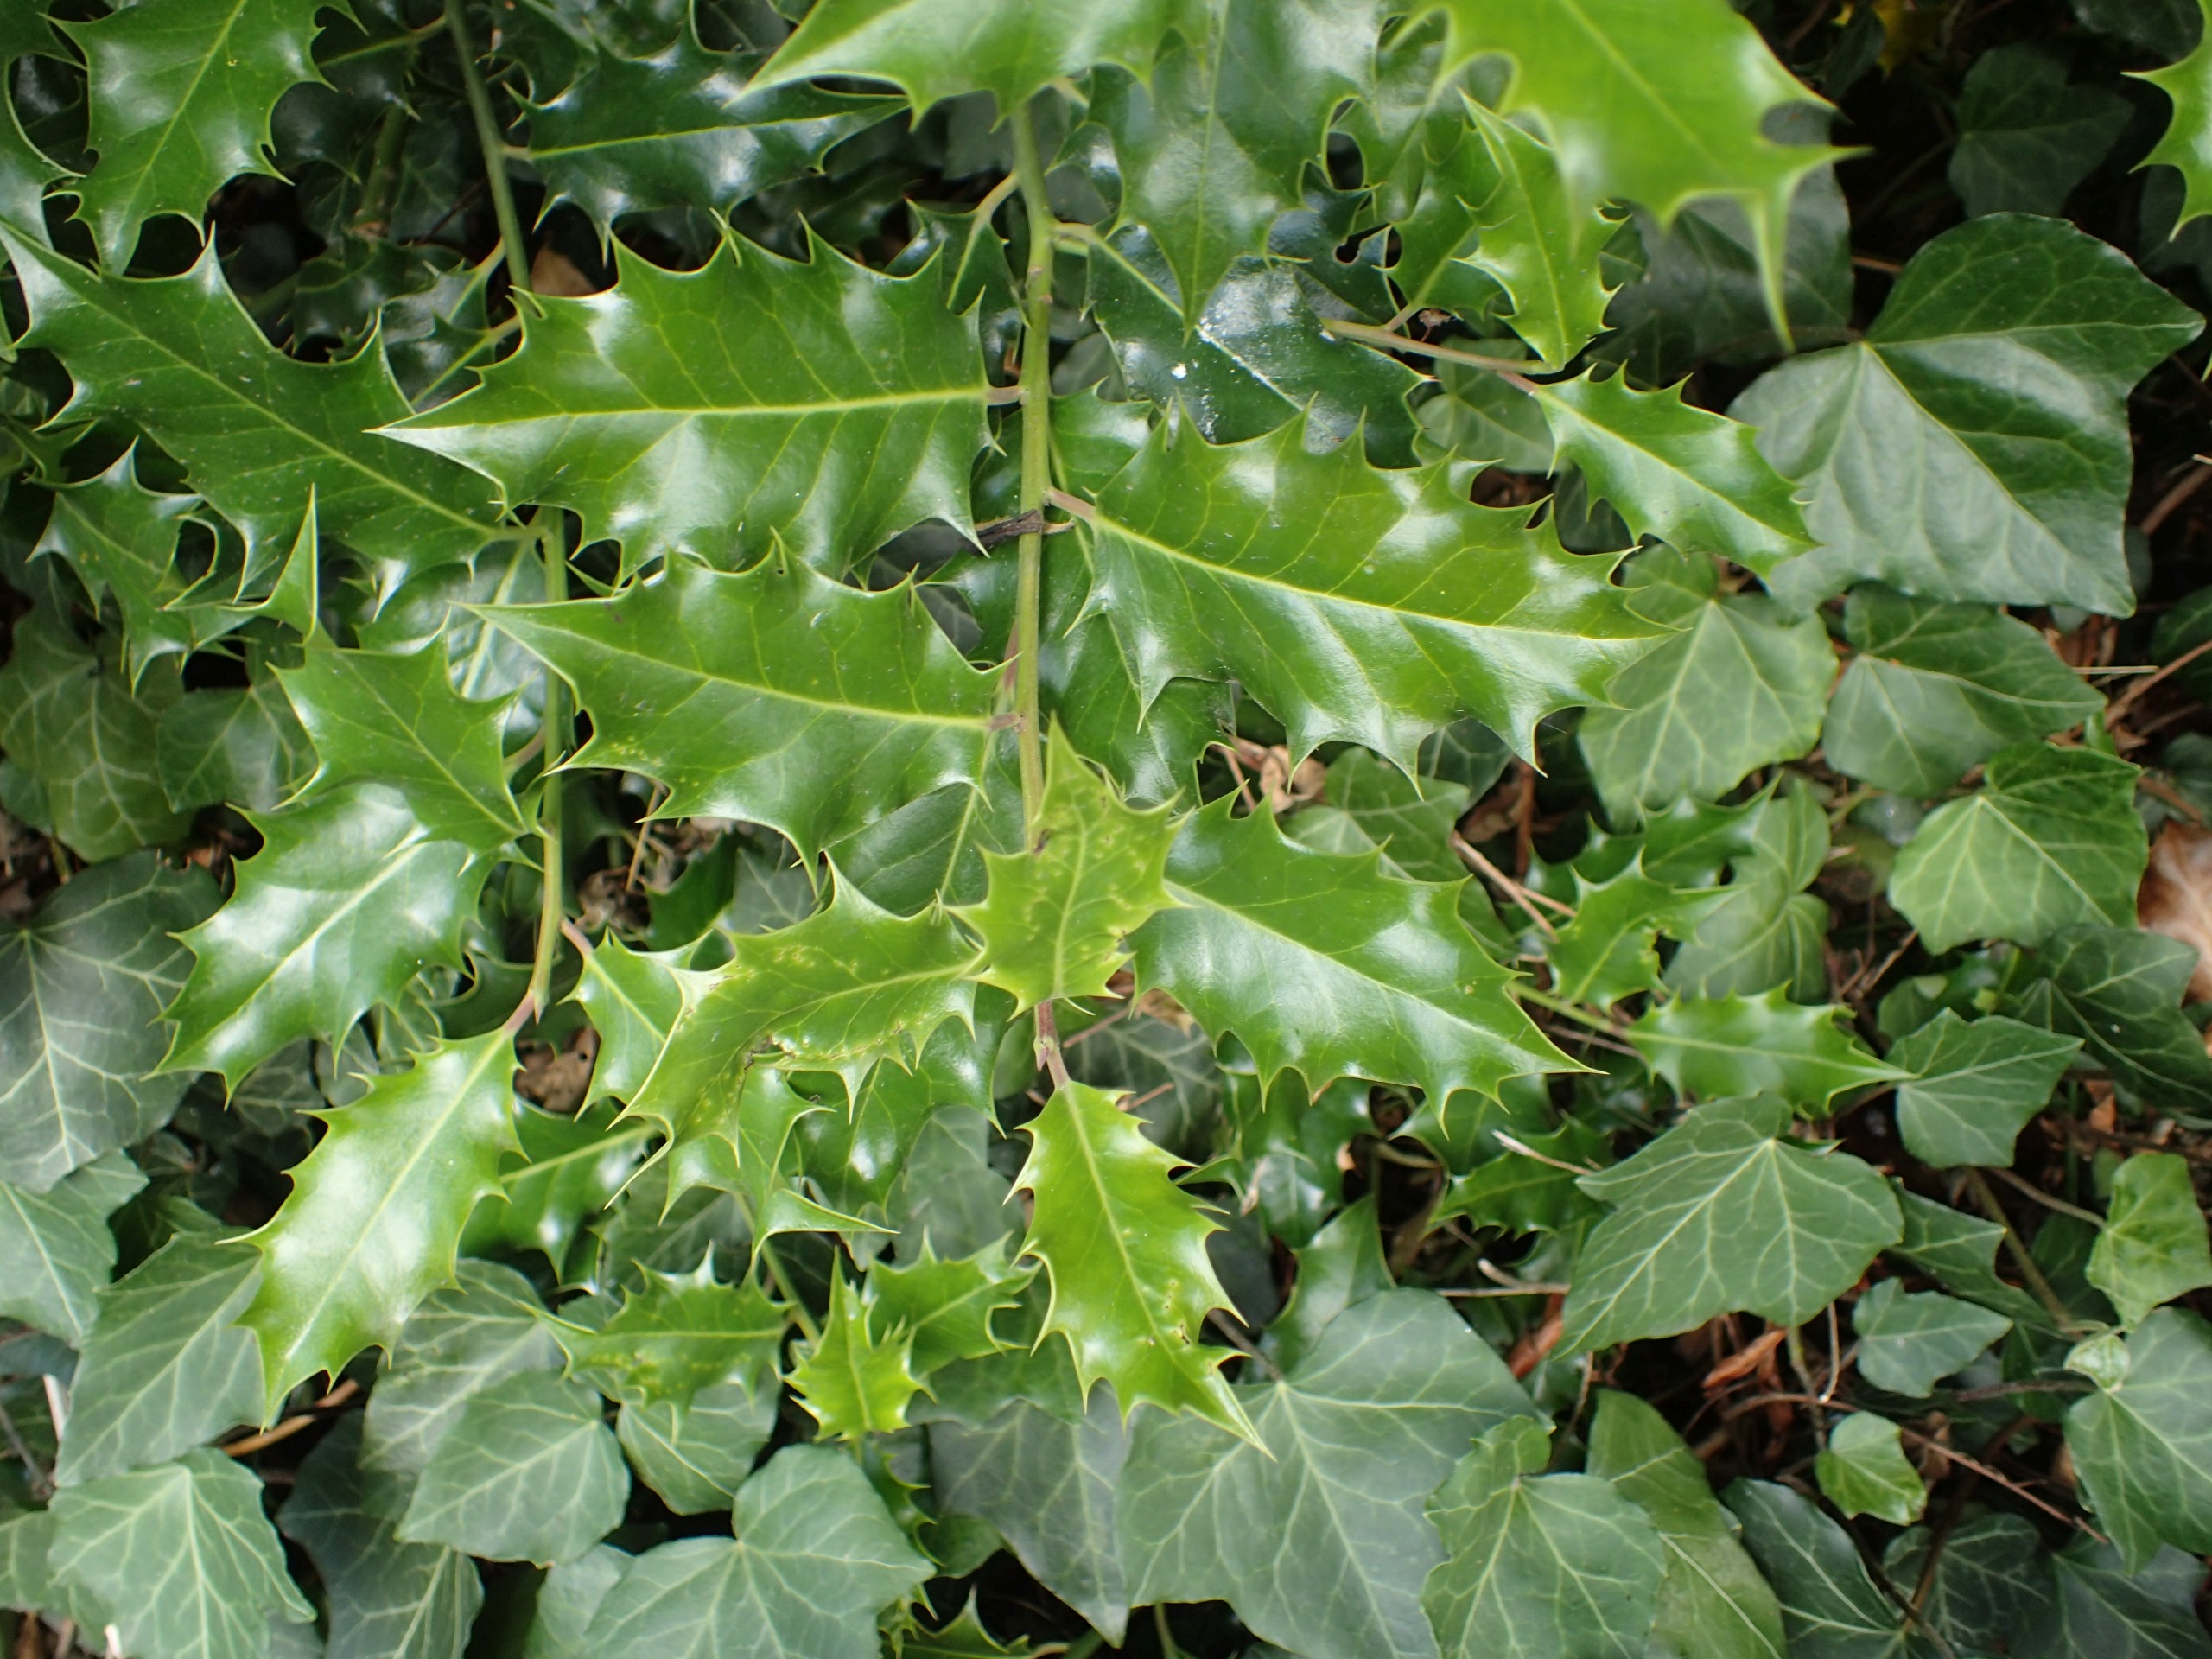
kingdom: Plantae
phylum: Tracheophyta
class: Magnoliopsida
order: Aquifoliales
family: Aquifoliaceae
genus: Ilex
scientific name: Ilex aquifolium
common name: Kristtorn
